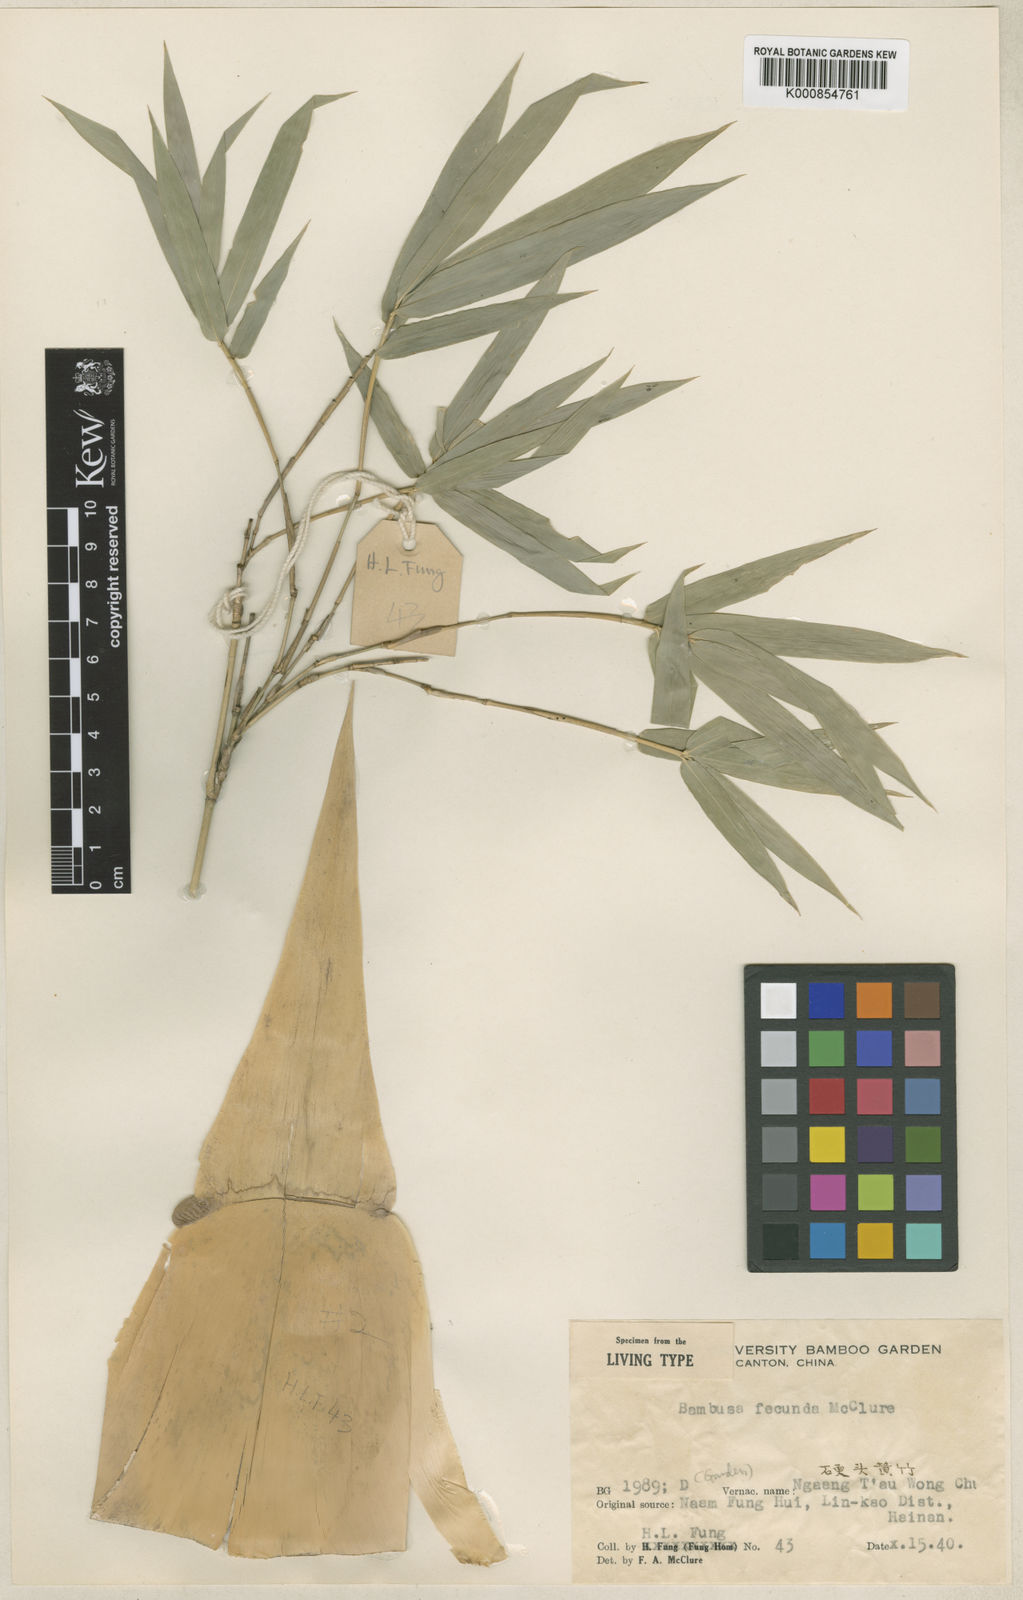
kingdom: Plantae
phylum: Tracheophyta
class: Liliopsida
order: Poales
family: Poaceae
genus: Bambusa
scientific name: Bambusa boniopsis
